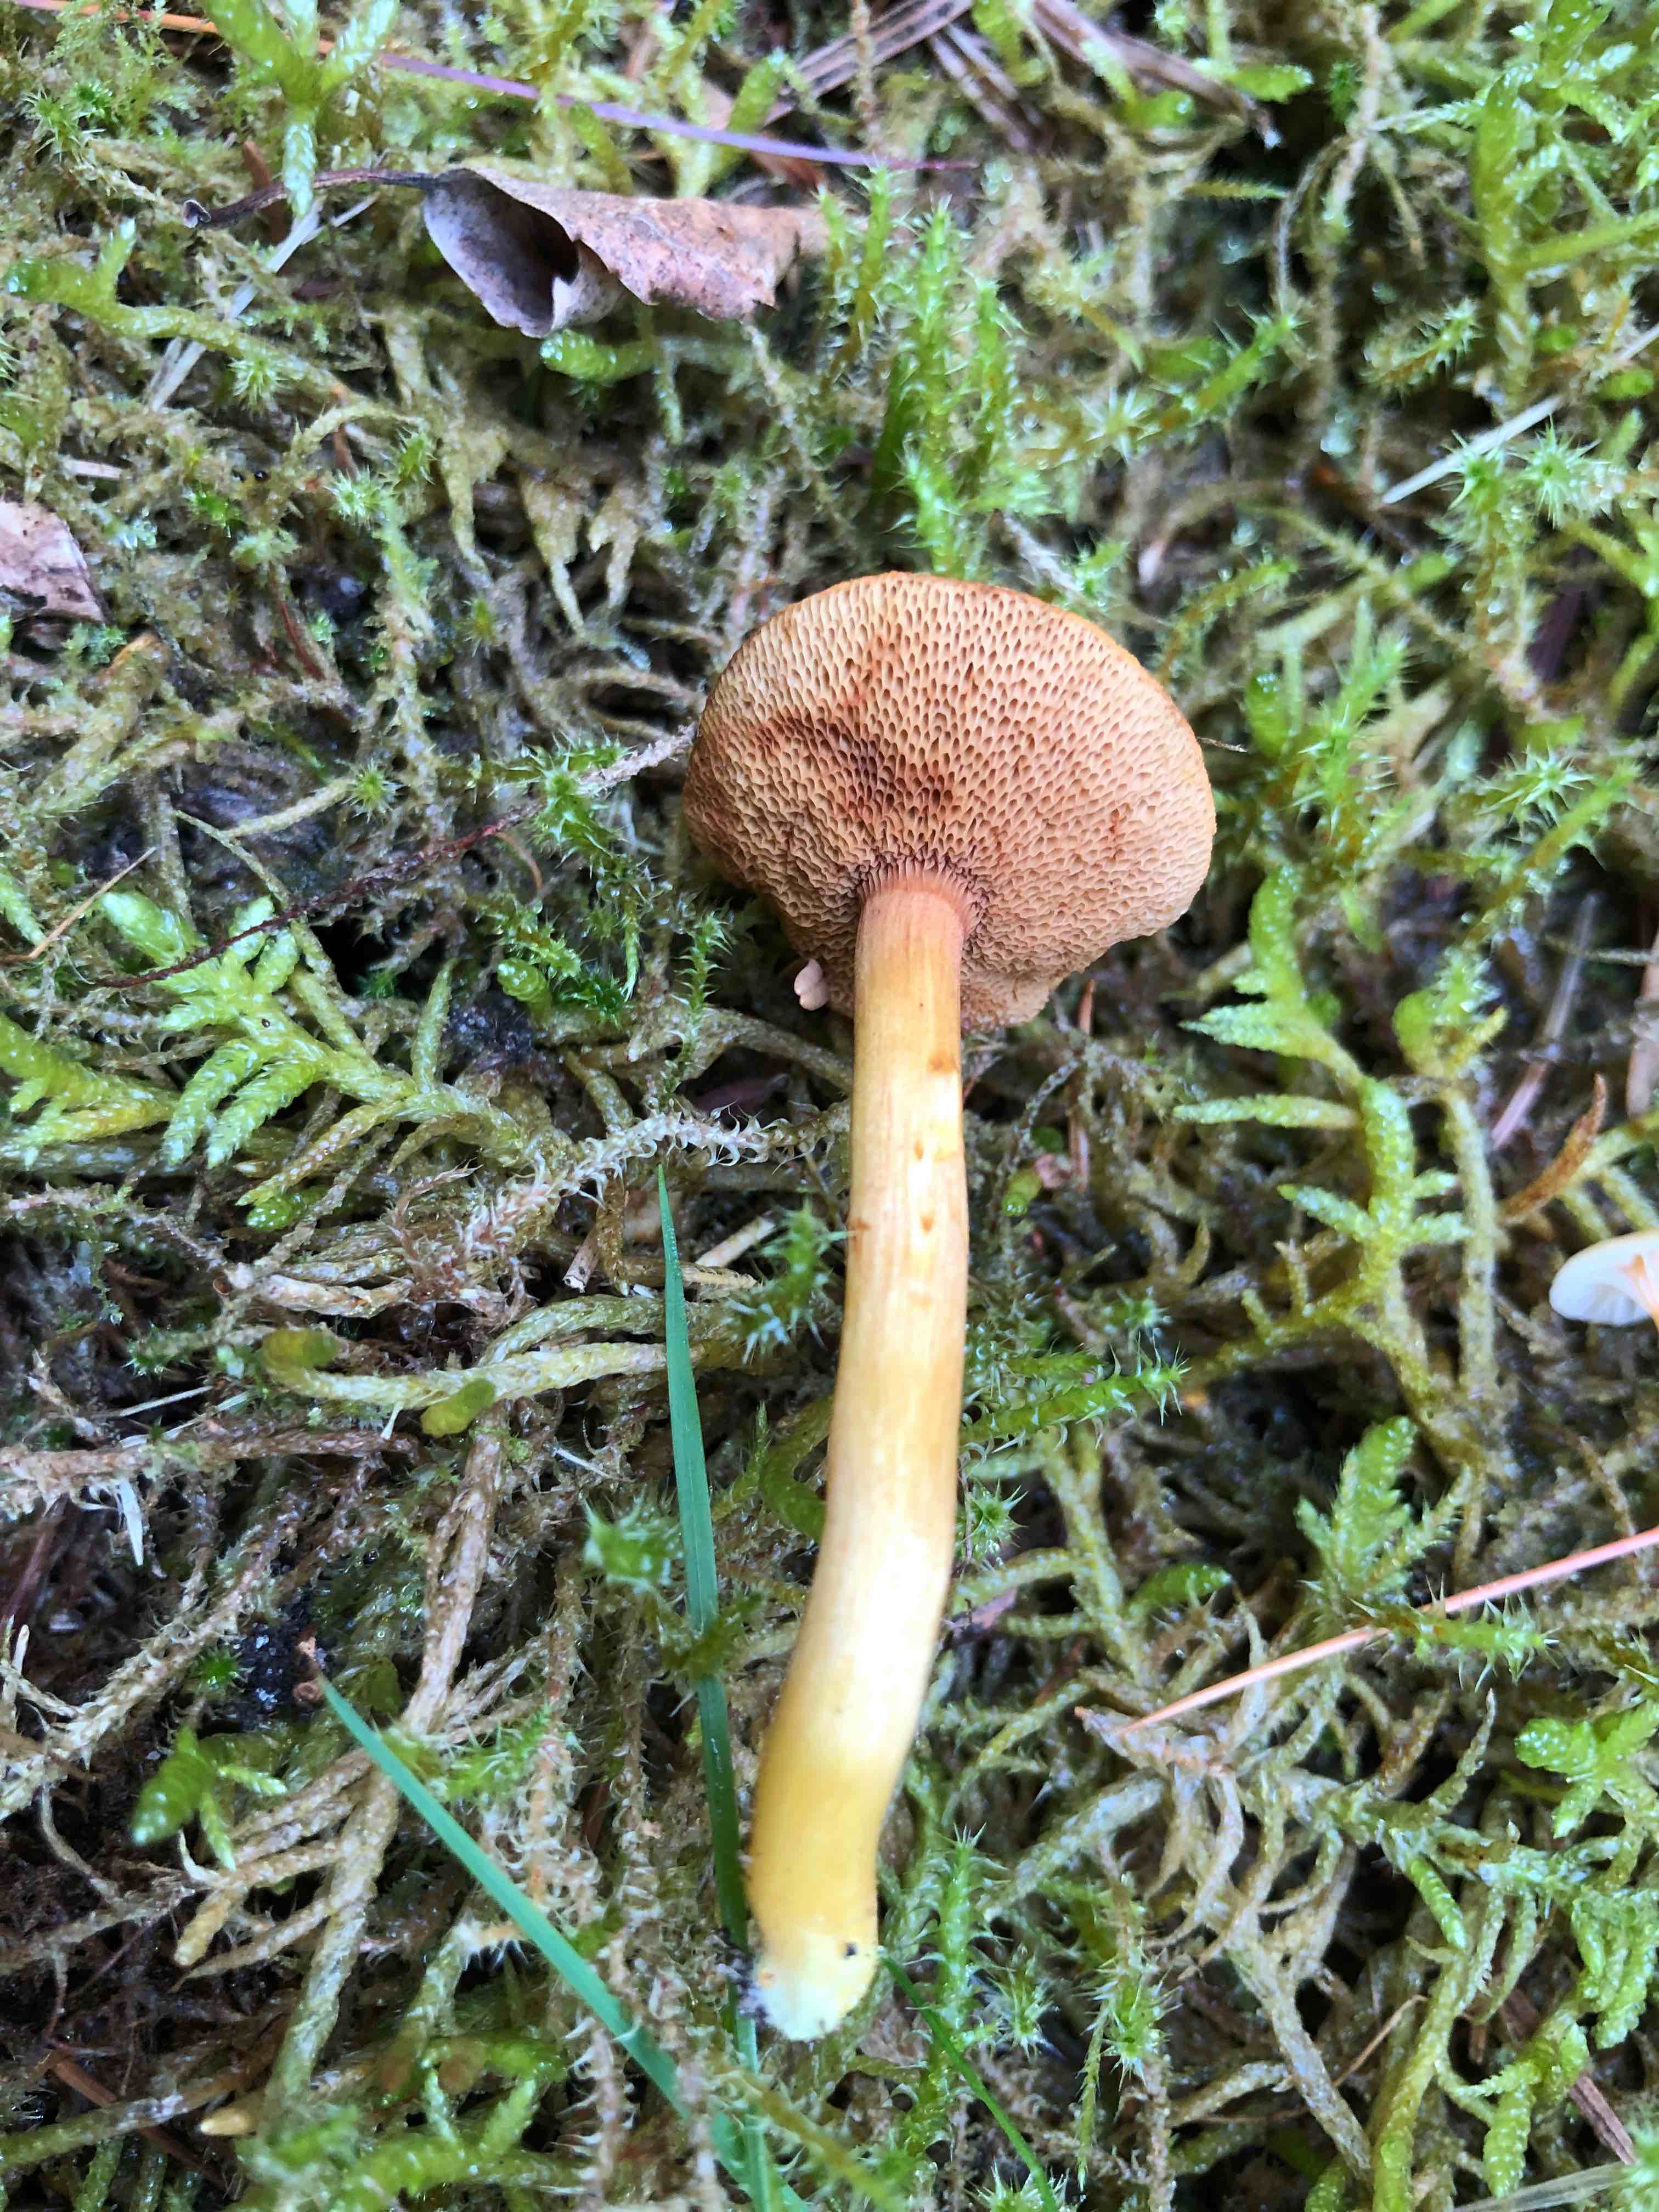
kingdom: Fungi
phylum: Basidiomycota
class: Agaricomycetes
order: Boletales
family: Boletaceae
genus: Chalciporus
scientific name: Chalciporus piperatus
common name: peberrørhat
